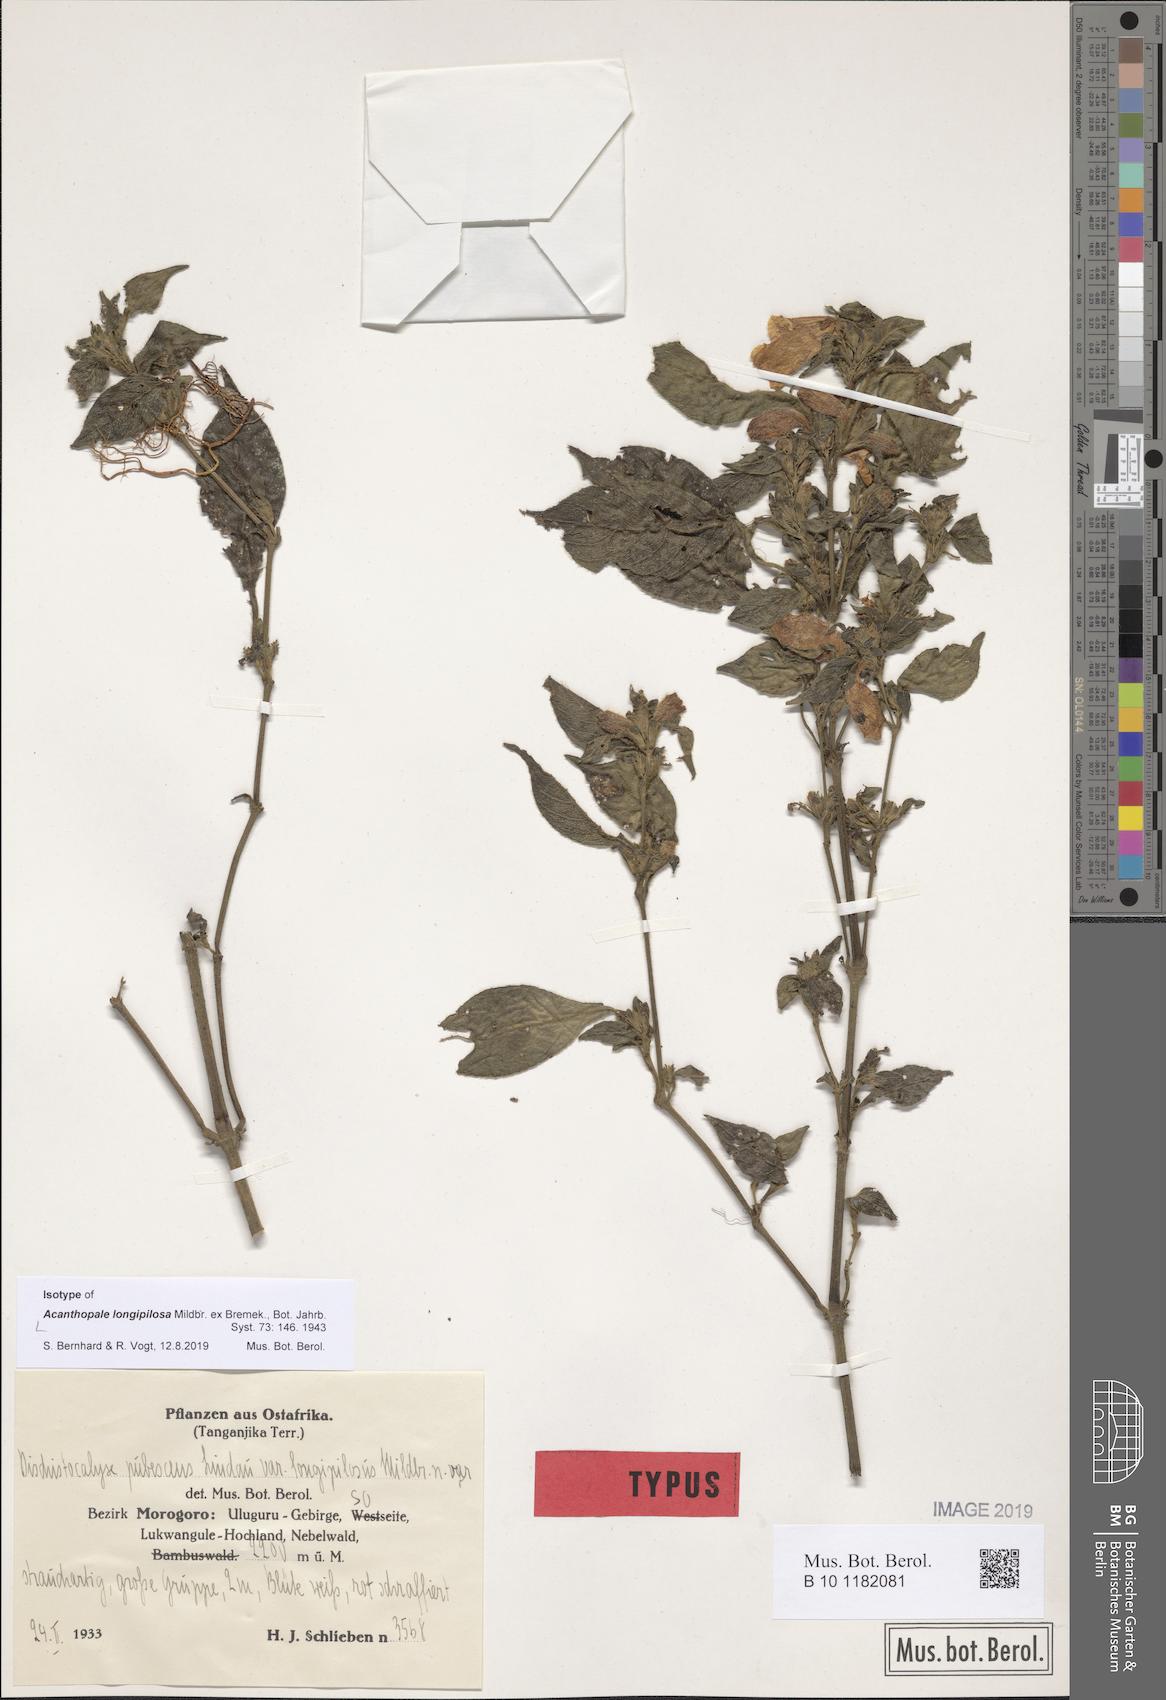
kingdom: Plantae
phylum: Tracheophyta
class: Magnoliopsida
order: Lamiales
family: Acanthaceae
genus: Acanthopale
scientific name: Acanthopale pubescens
